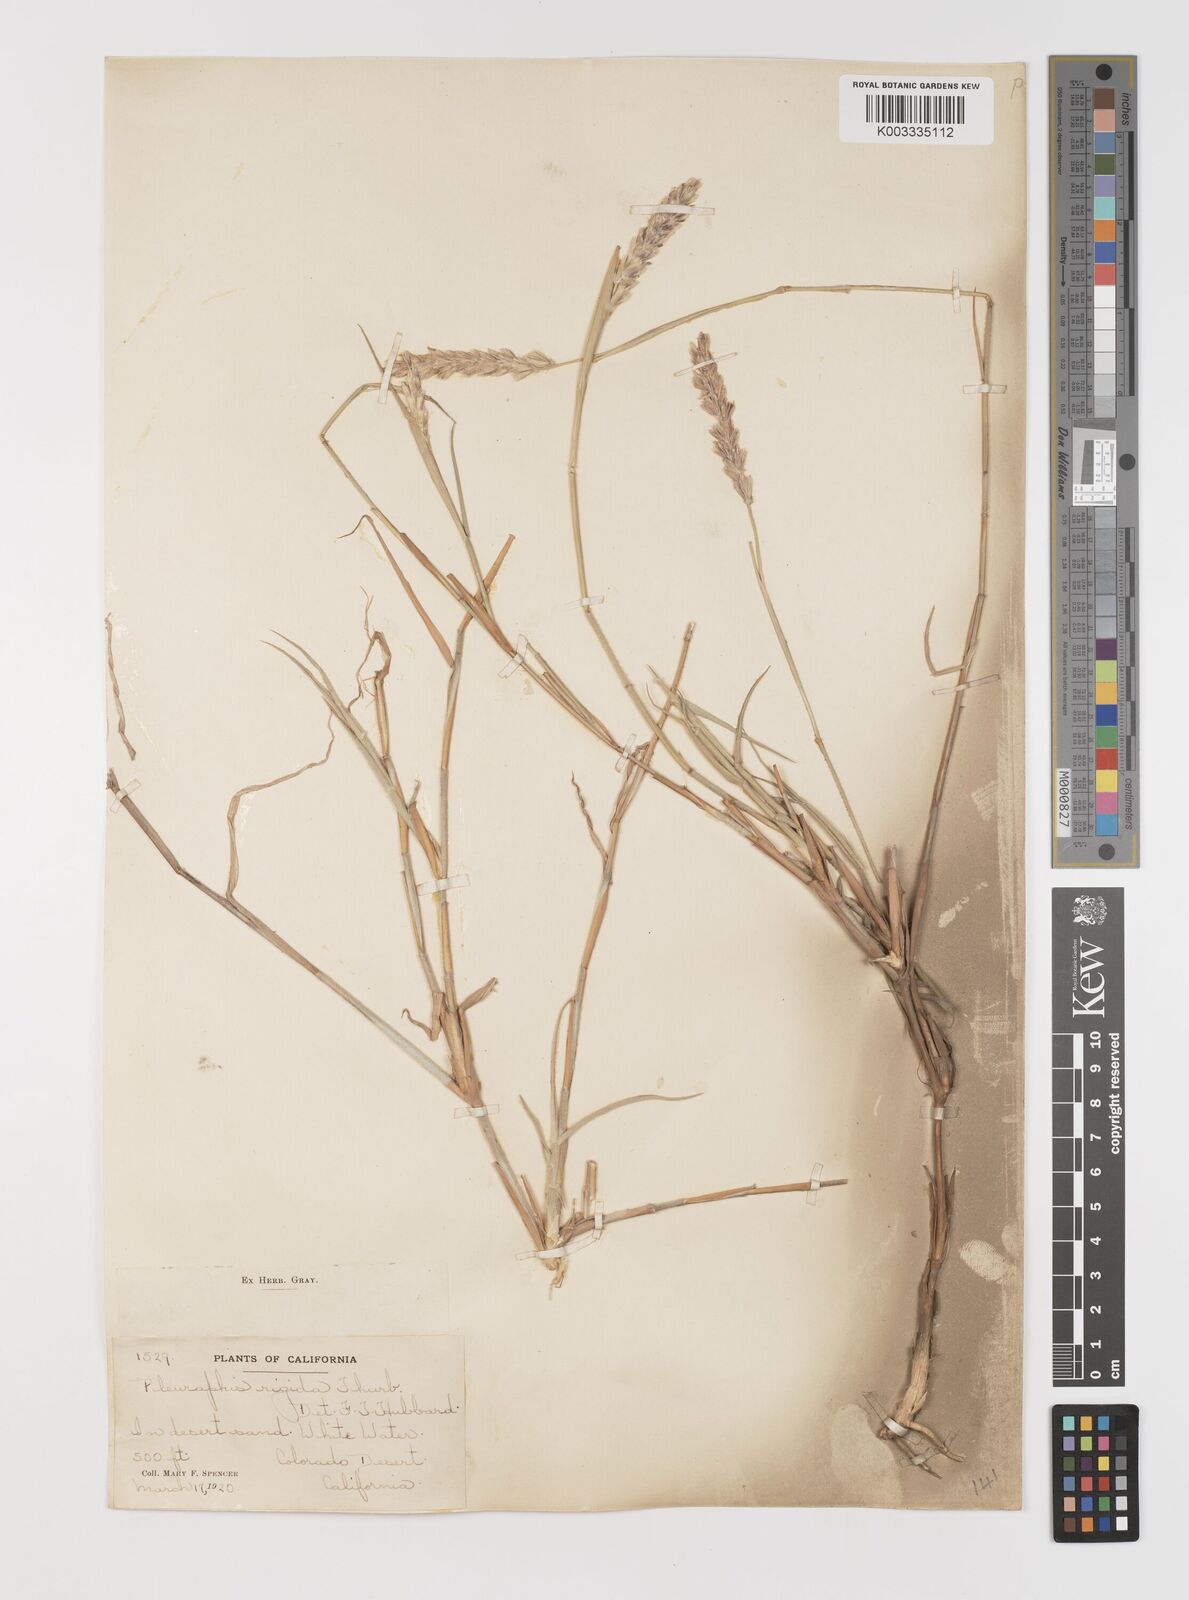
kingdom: Plantae
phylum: Tracheophyta
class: Liliopsida
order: Poales
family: Poaceae
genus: Hilaria
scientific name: Hilaria rigida
